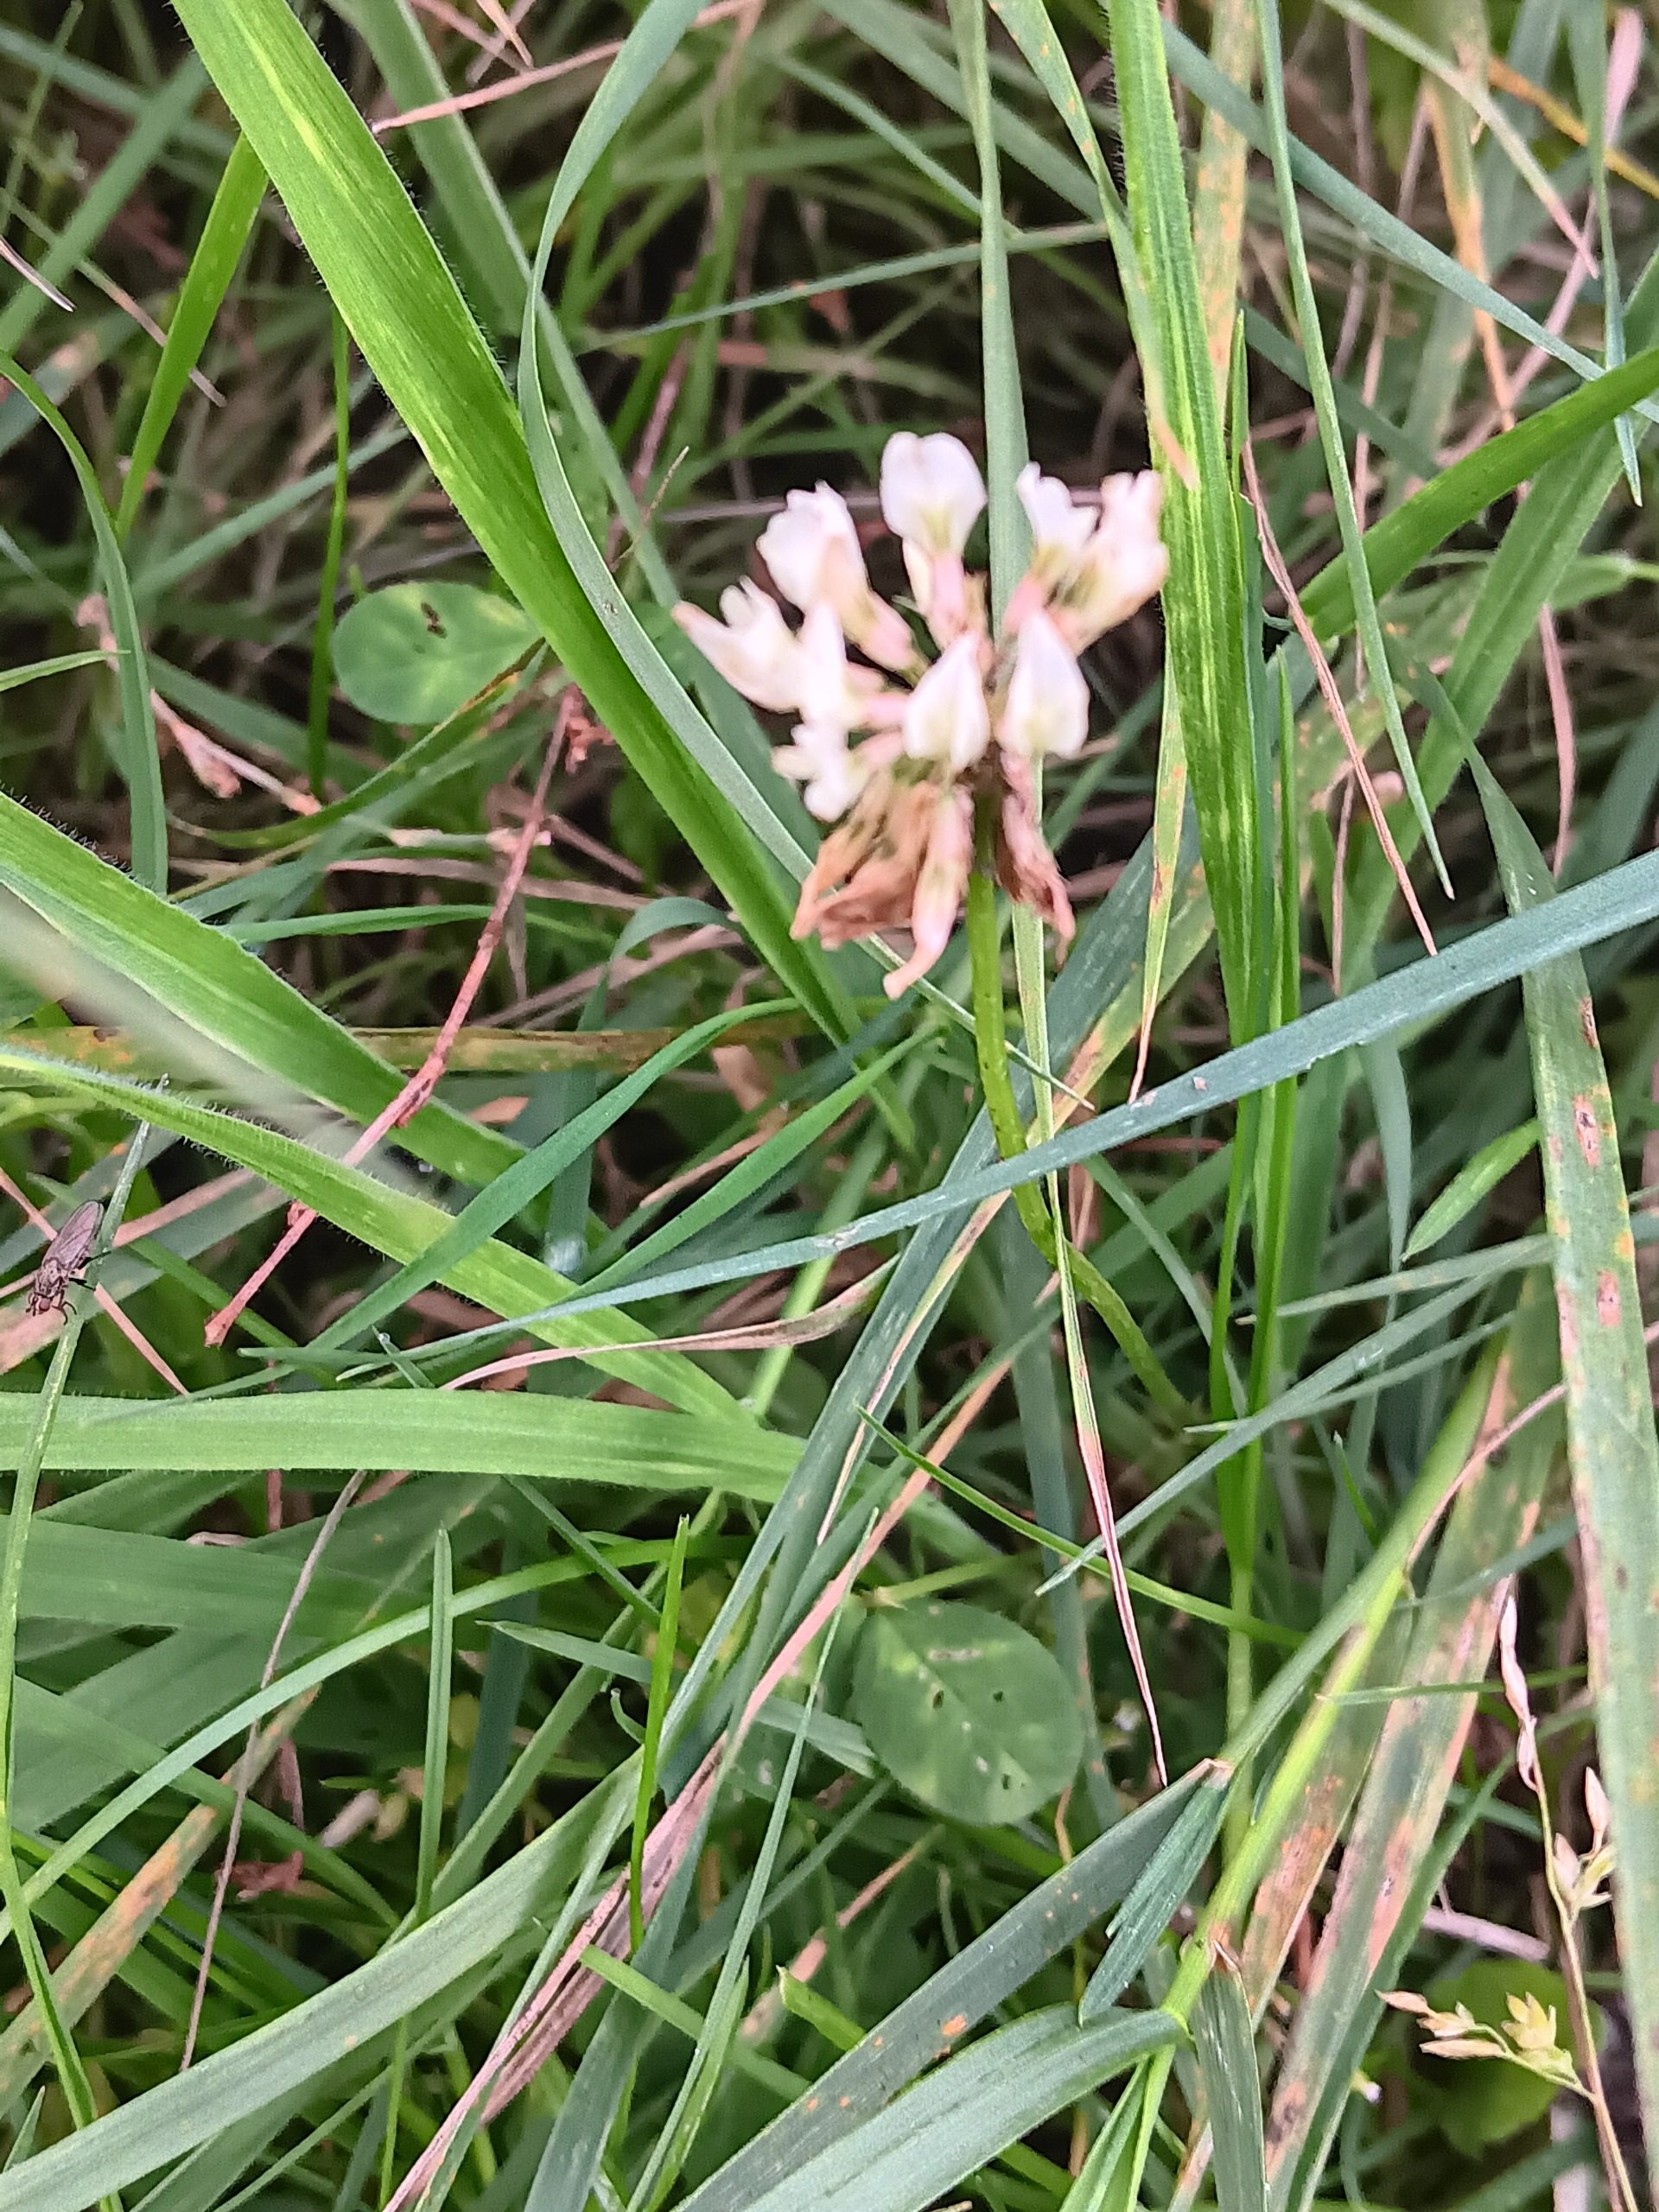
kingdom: Plantae
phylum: Tracheophyta
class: Magnoliopsida
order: Fabales
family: Fabaceae
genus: Trifolium
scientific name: Trifolium repens
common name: Hvid-kløver
